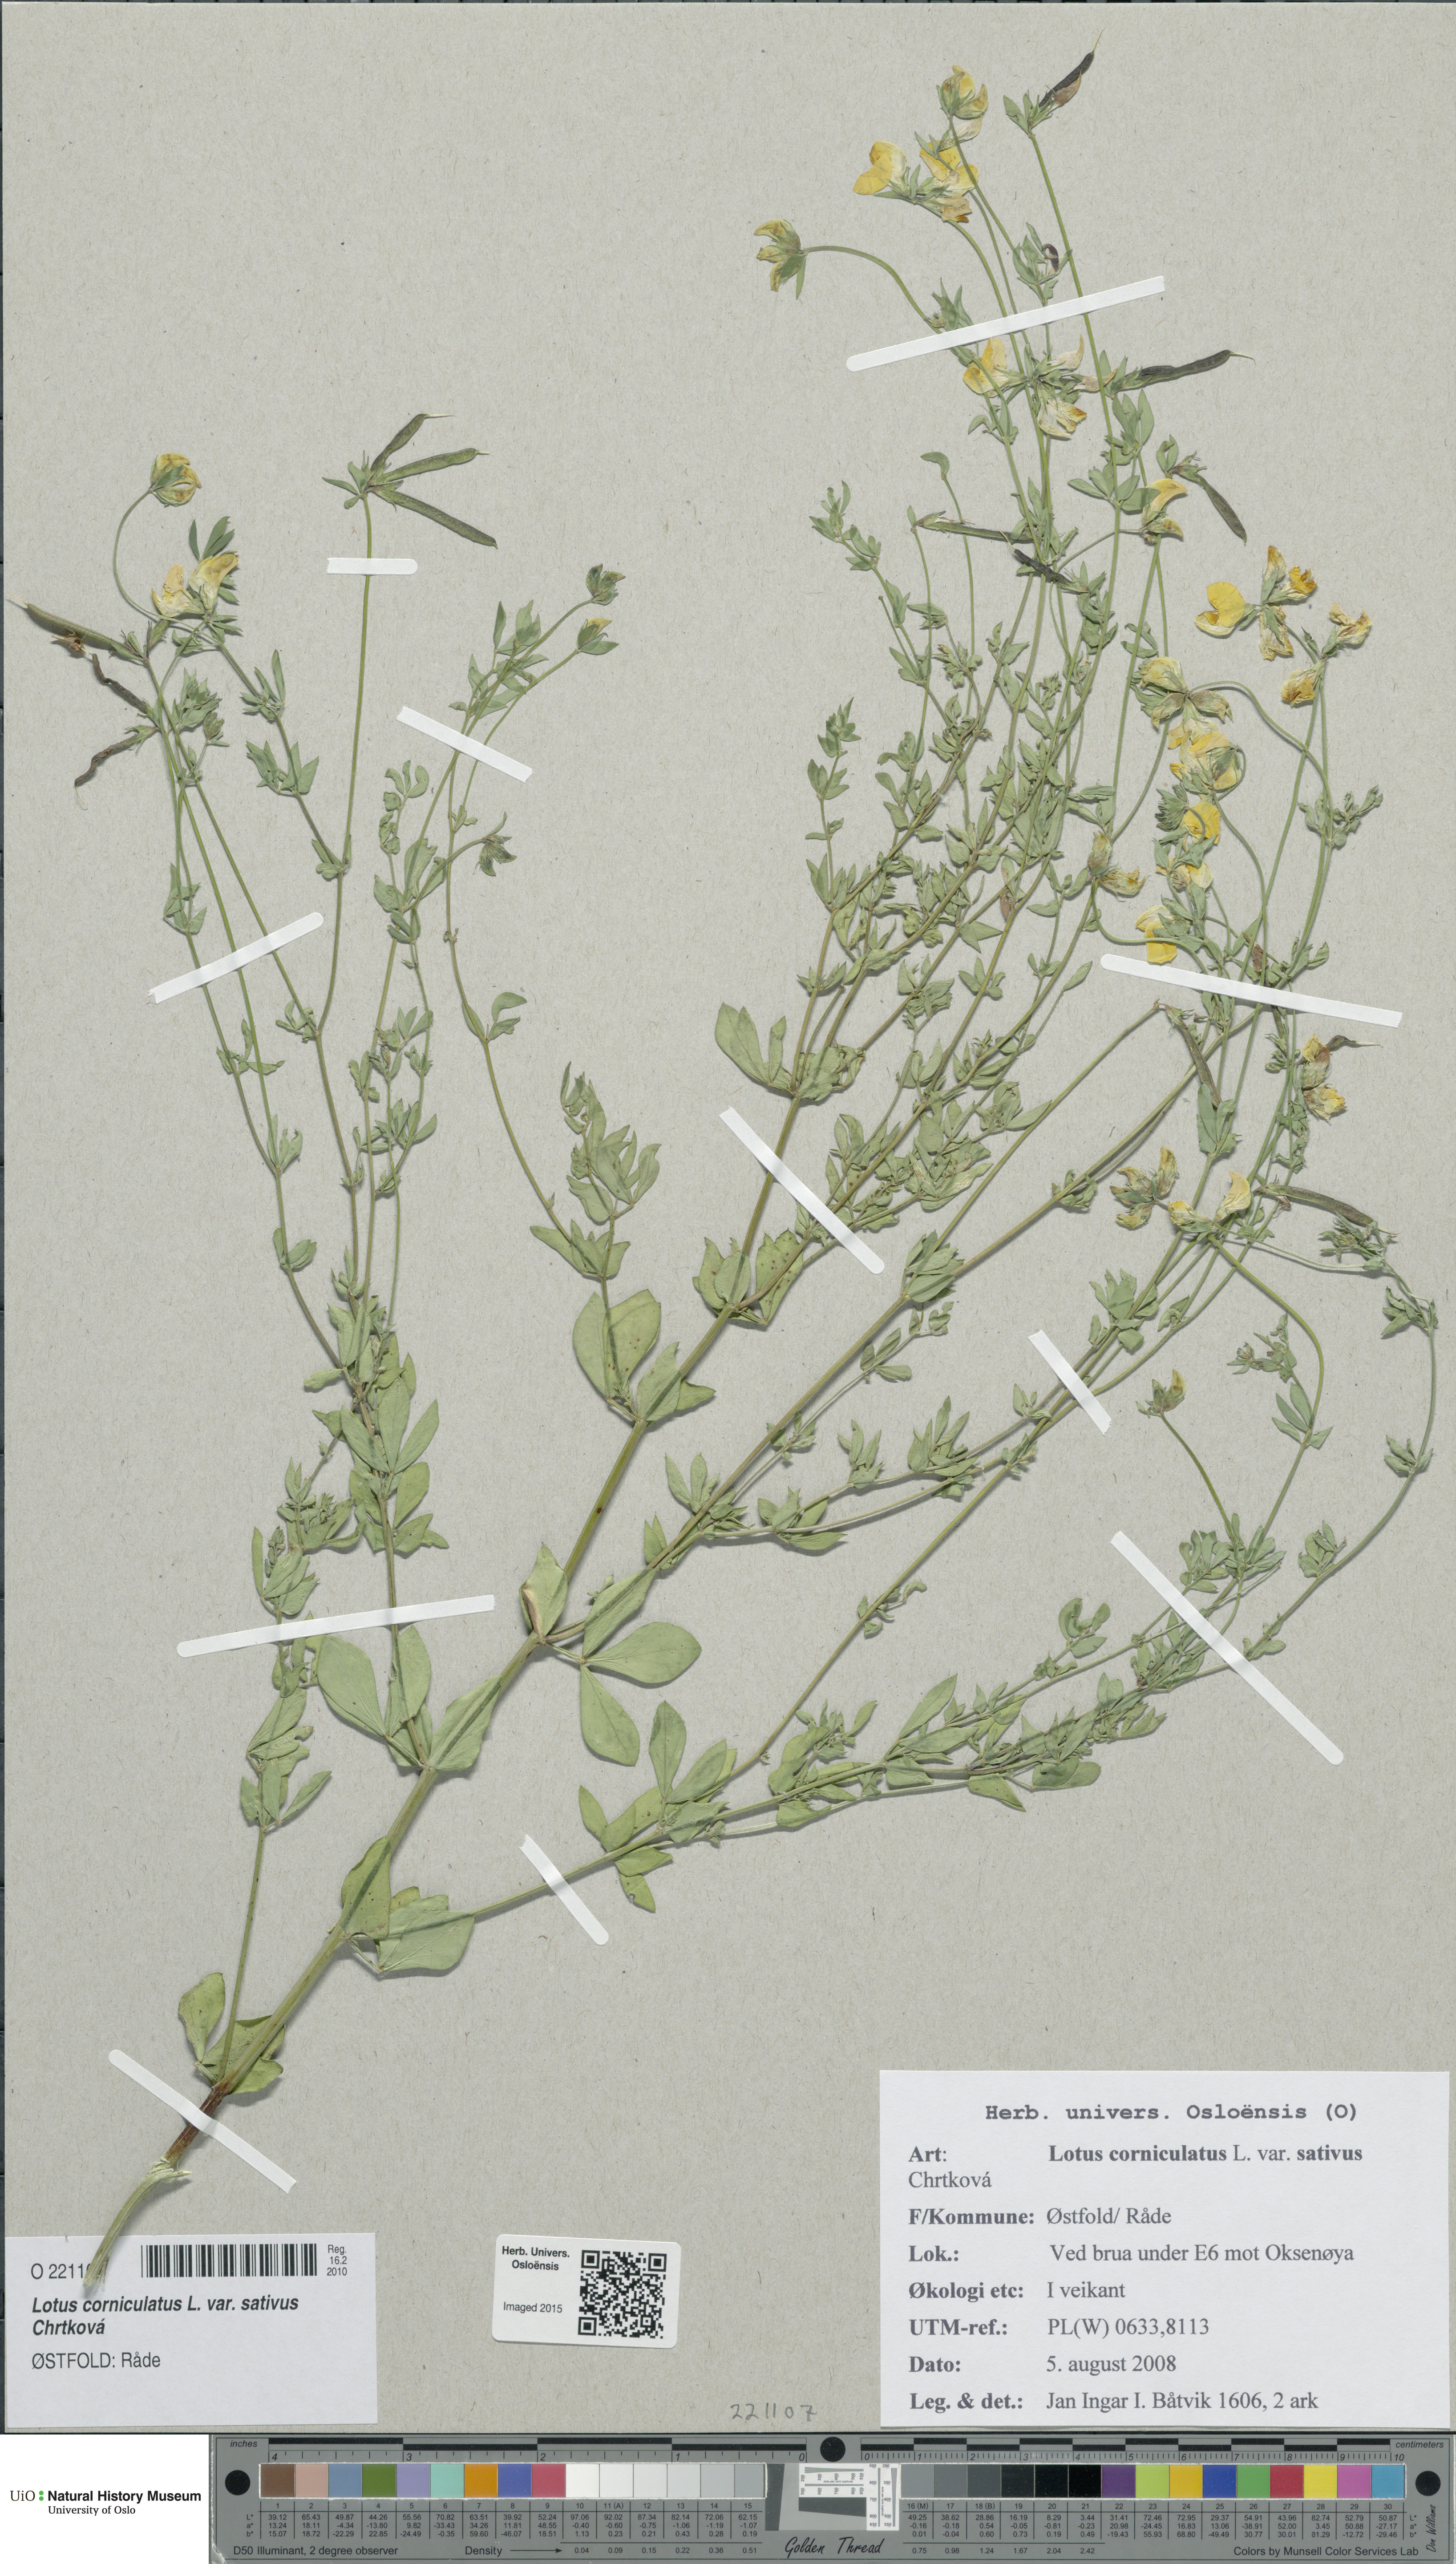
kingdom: Plantae
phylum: Tracheophyta
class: Magnoliopsida
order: Fabales
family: Fabaceae
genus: Lotus
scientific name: Lotus corniculatus
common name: Common bird's-foot-trefoil
